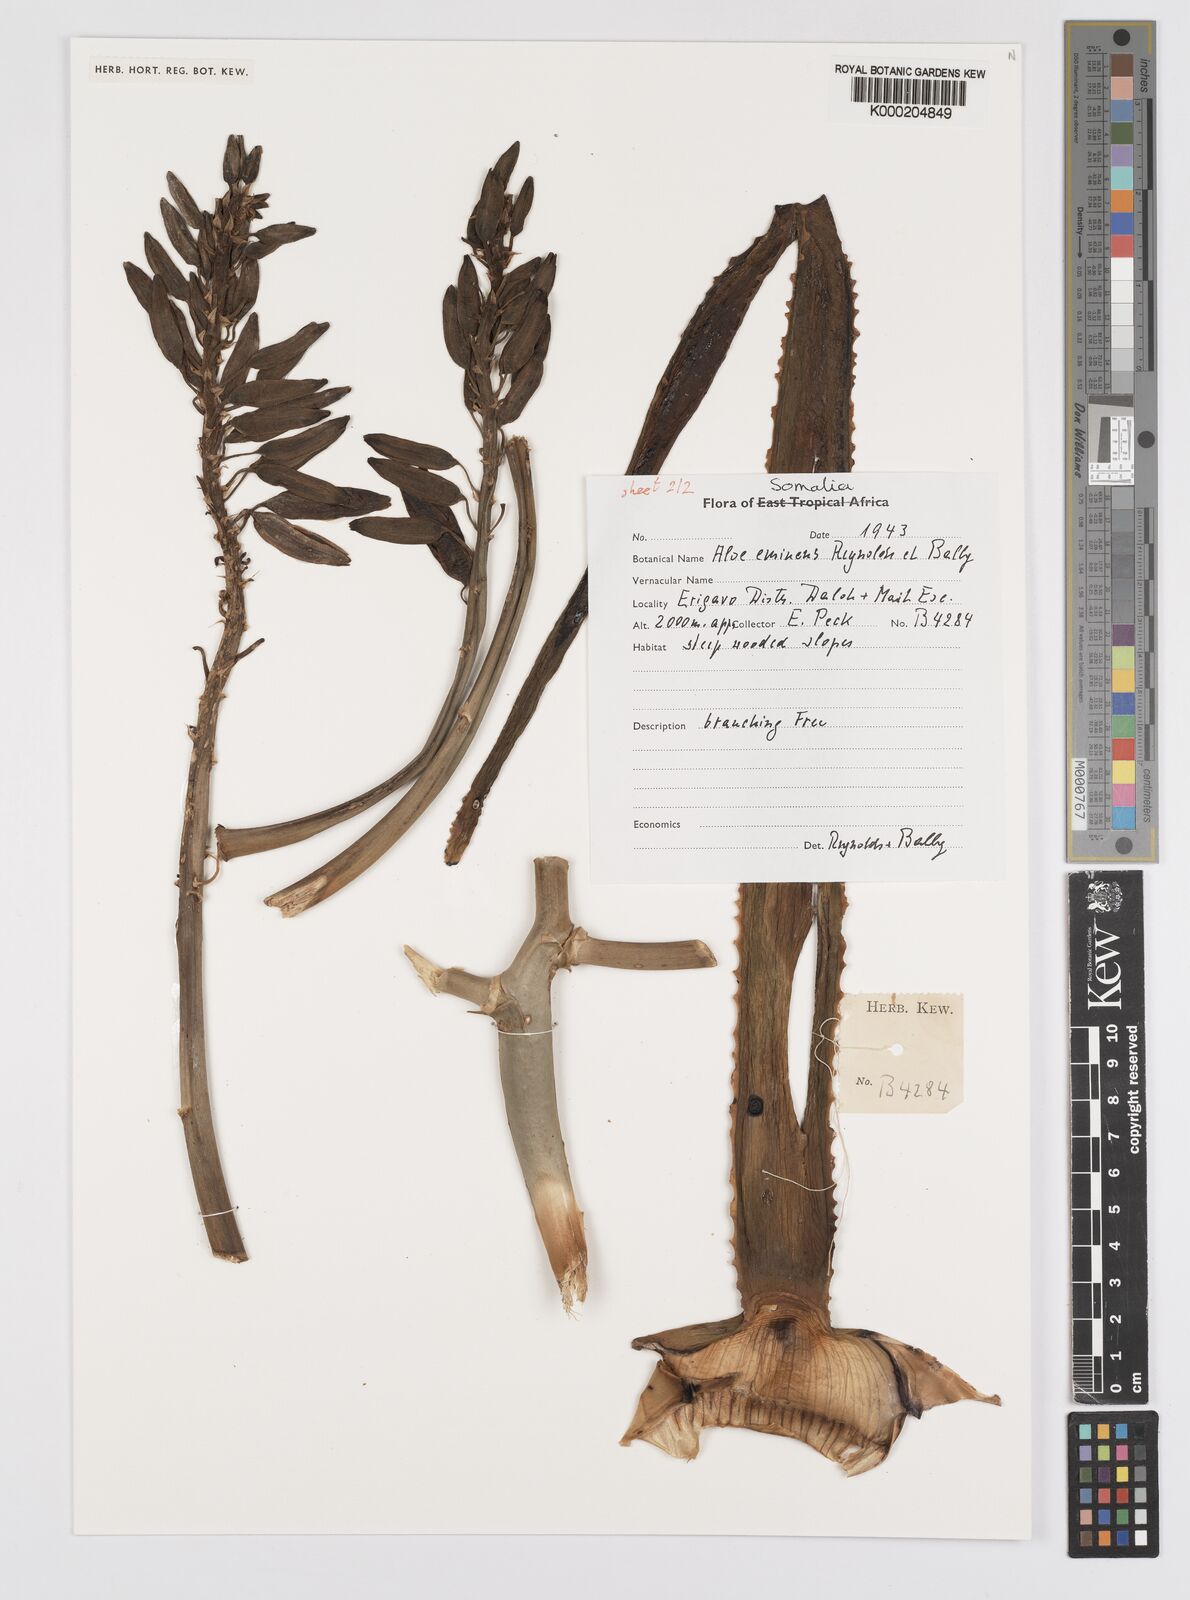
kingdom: Plantae
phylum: Tracheophyta
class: Liliopsida
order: Asparagales
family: Asphodelaceae
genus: Aloidendron
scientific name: Aloidendron eminens
